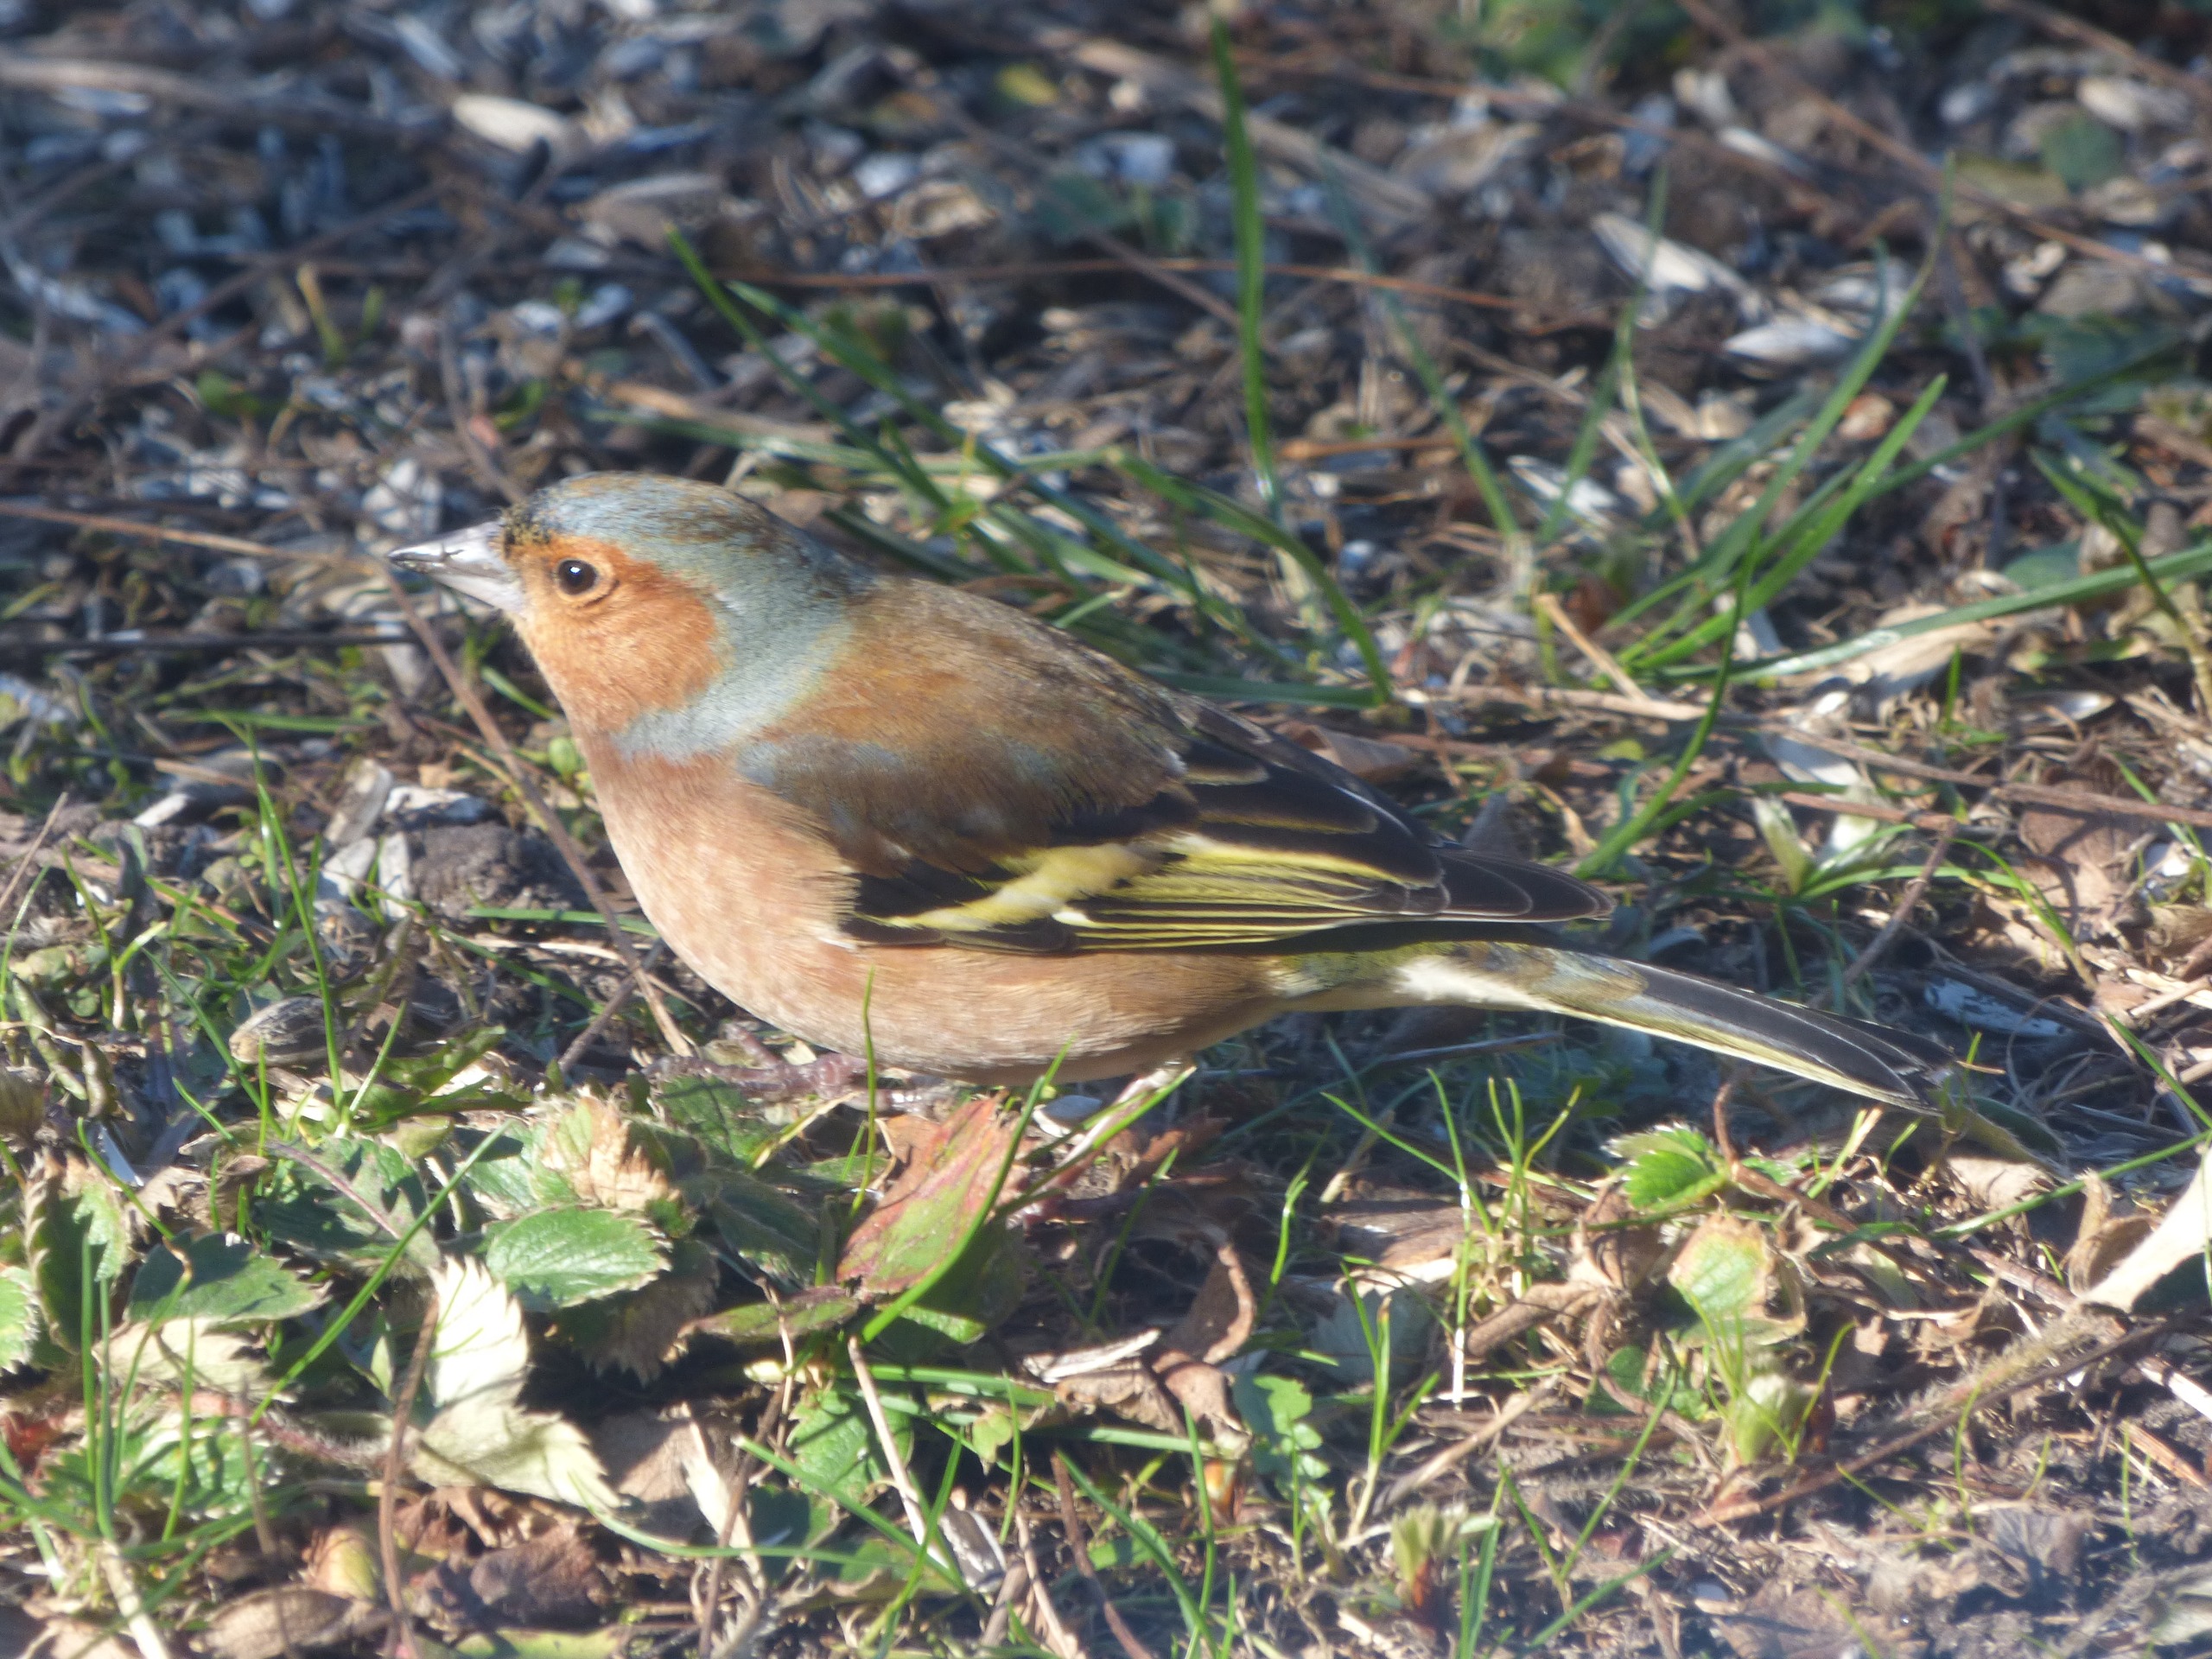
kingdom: Animalia
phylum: Chordata
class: Aves
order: Passeriformes
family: Fringillidae
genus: Fringilla
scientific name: Fringilla coelebs
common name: Bogfinke
